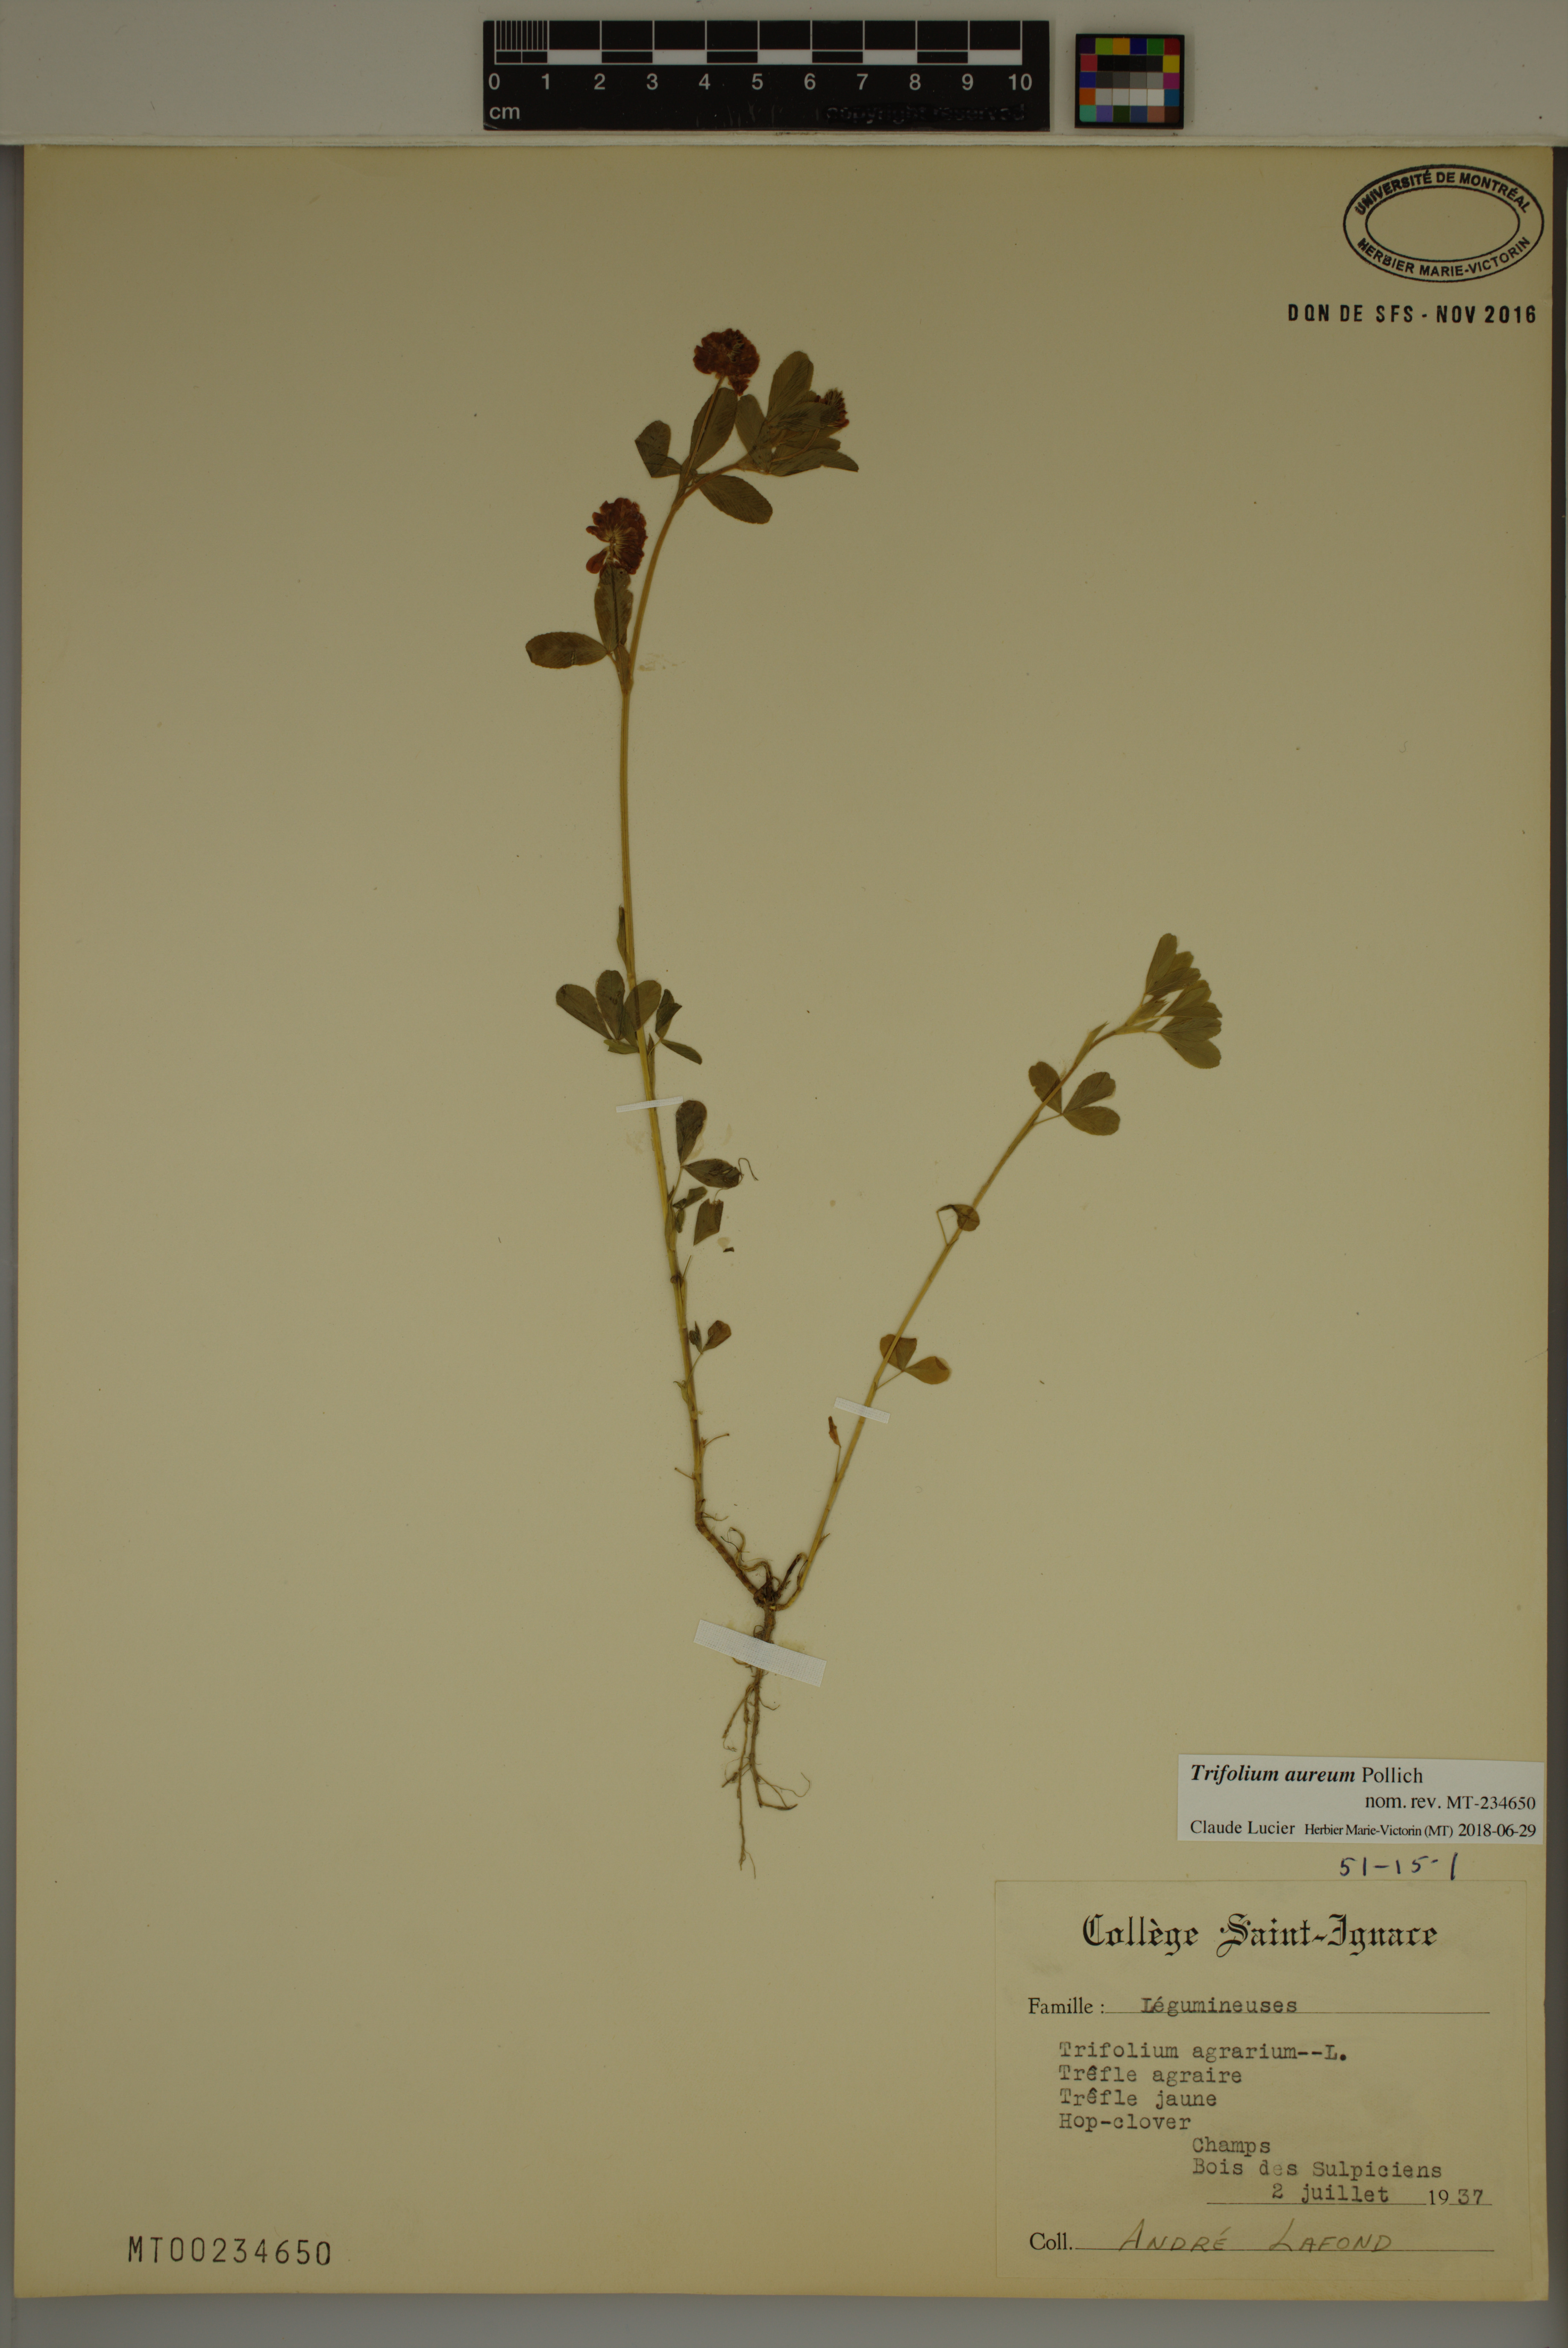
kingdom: Plantae
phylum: Tracheophyta
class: Magnoliopsida
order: Fabales
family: Fabaceae
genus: Trifolium
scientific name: Trifolium aureum
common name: Golden clover
